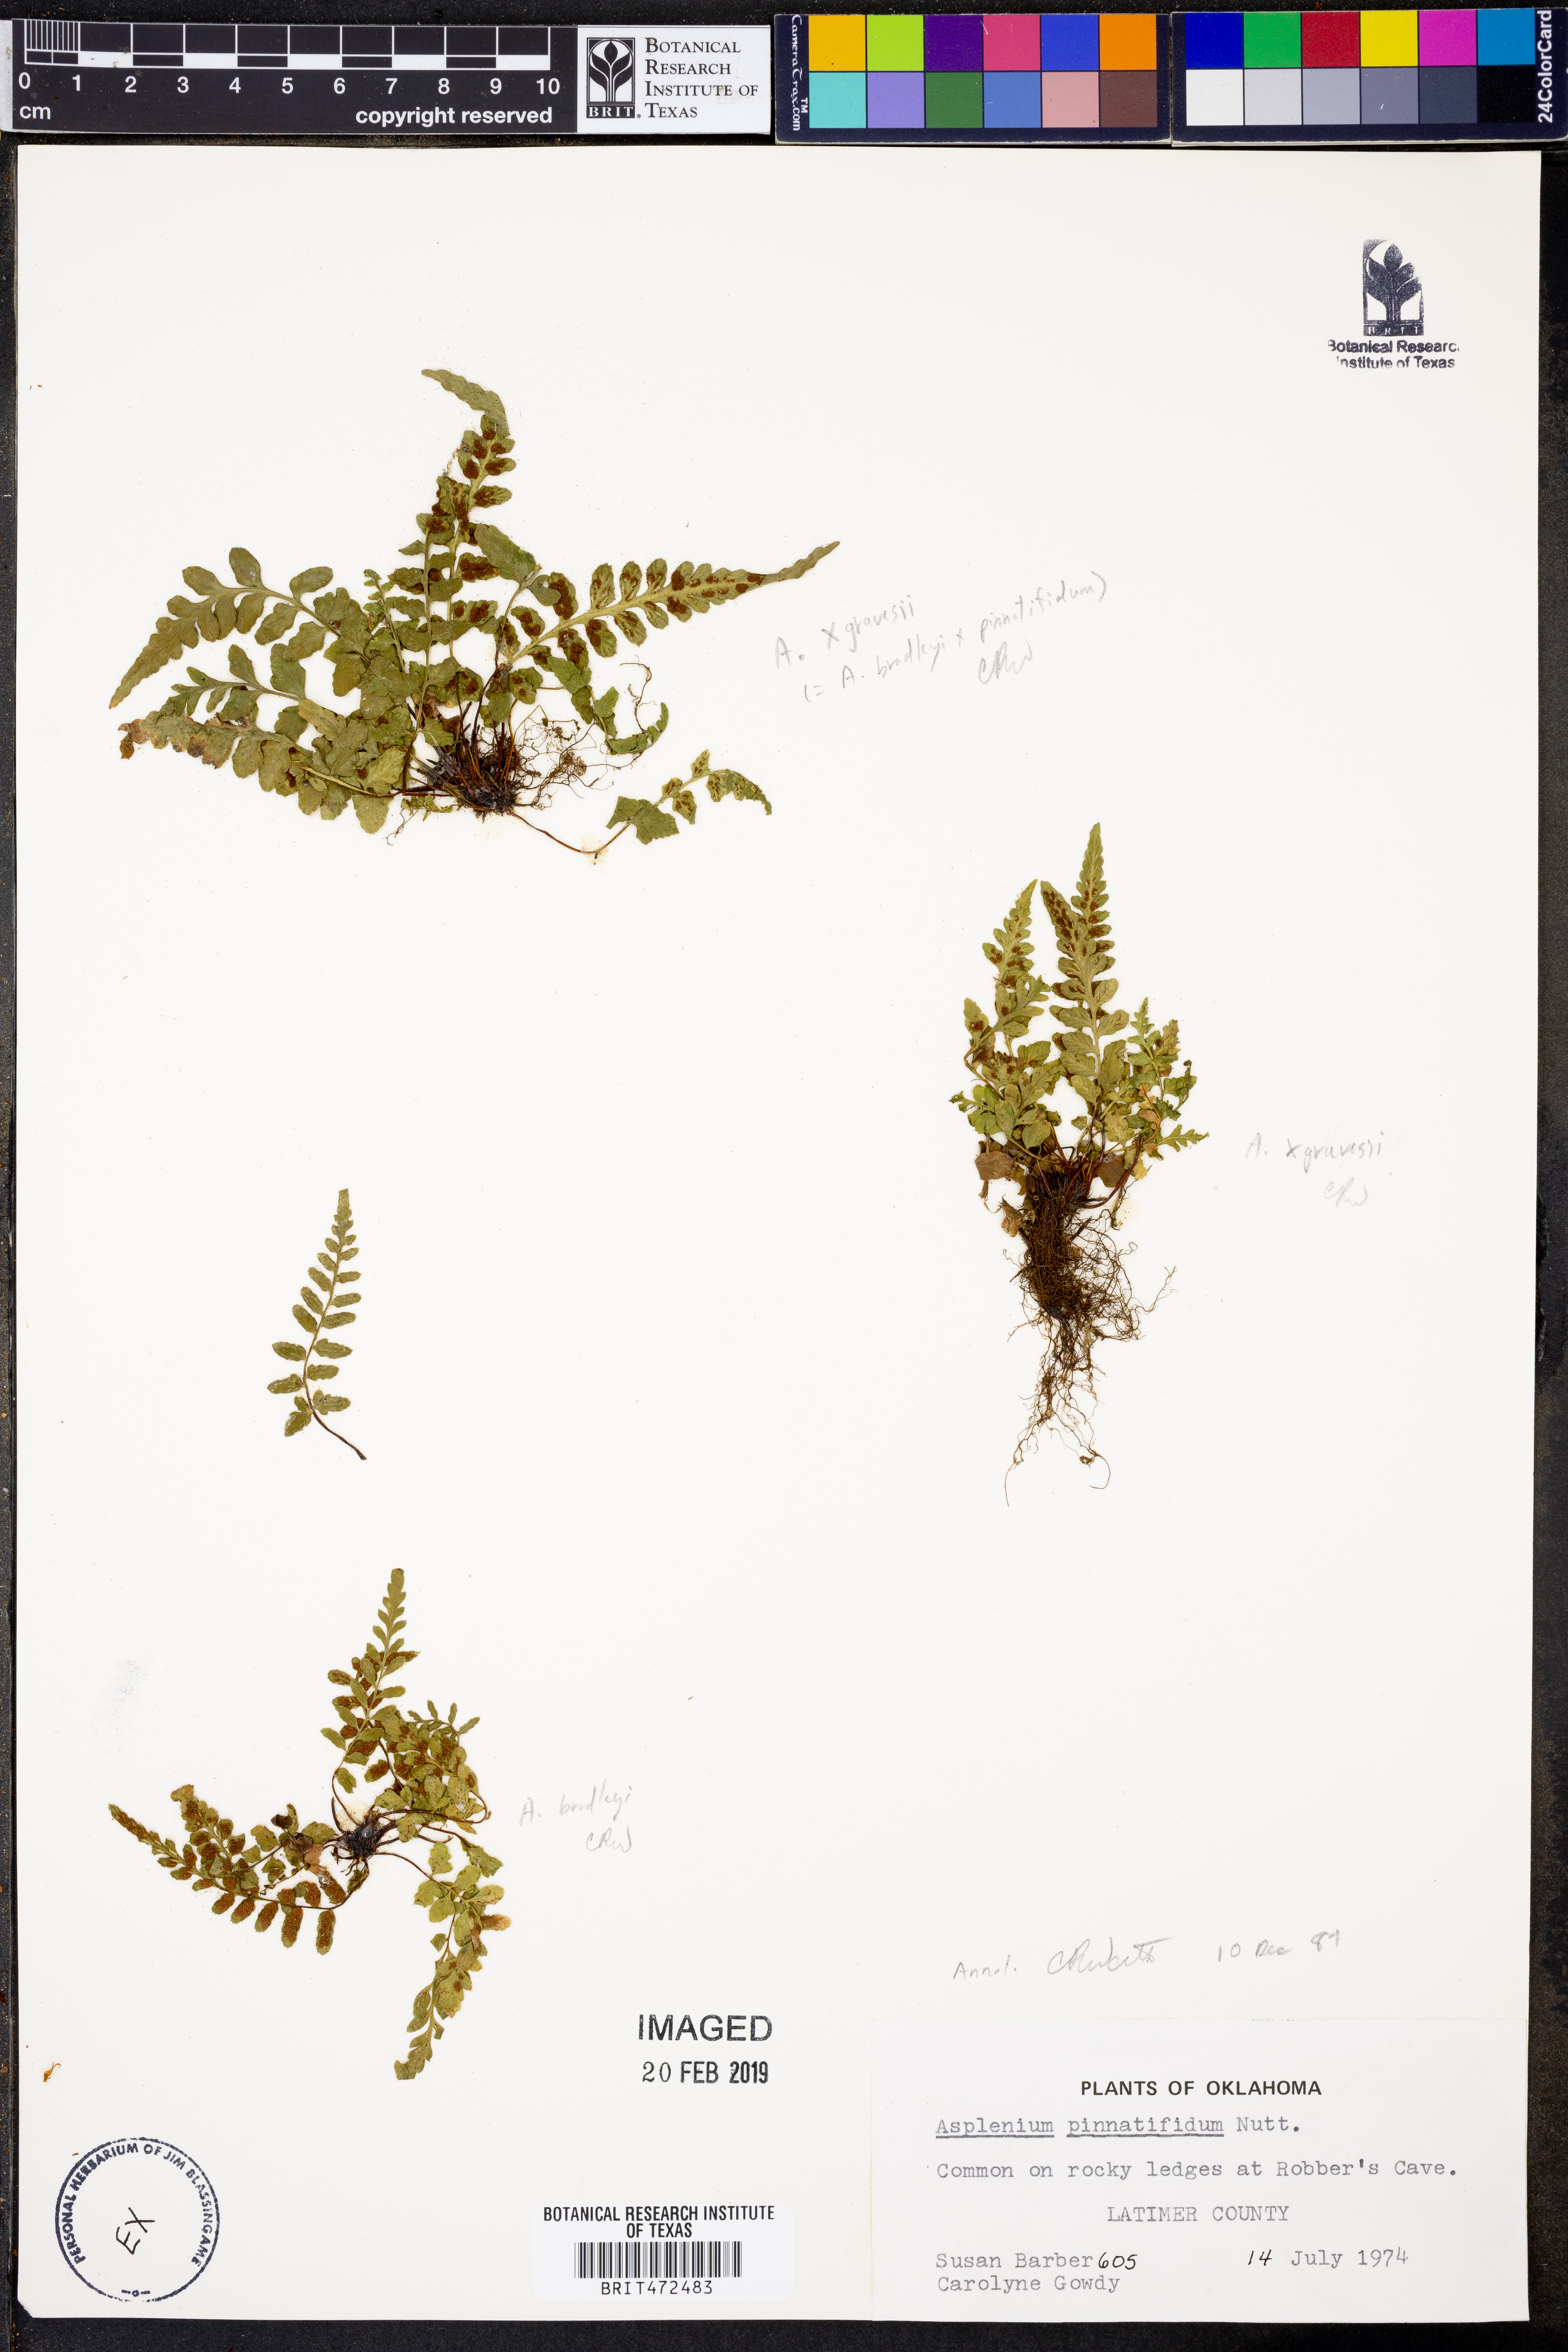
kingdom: Plantae
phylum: Tracheophyta
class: Polypodiopsida
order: Polypodiales
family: Aspleniaceae
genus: Asplenium
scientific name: Asplenium pinnatifidum
